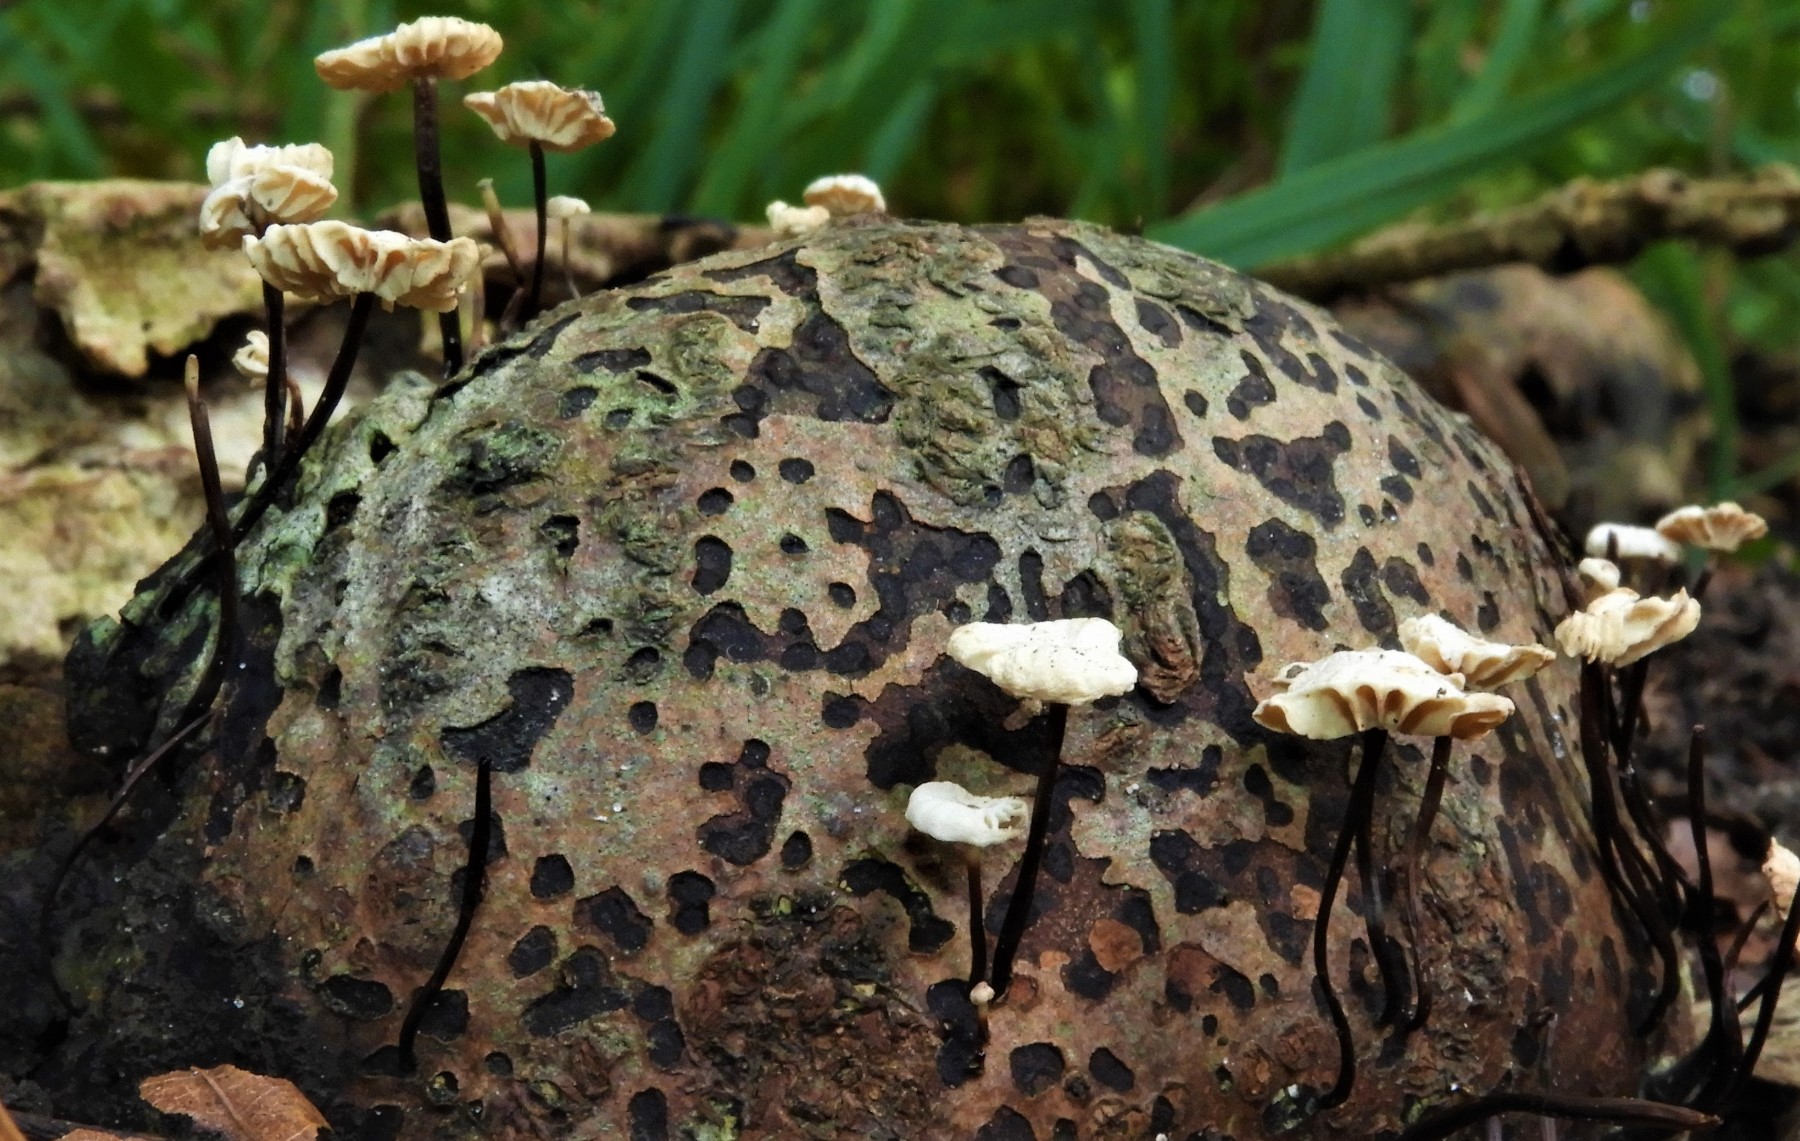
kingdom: Fungi
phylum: Basidiomycota
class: Agaricomycetes
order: Agaricales
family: Marasmiaceae
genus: Marasmius
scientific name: Marasmius rotula
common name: hjul-bruskhat
